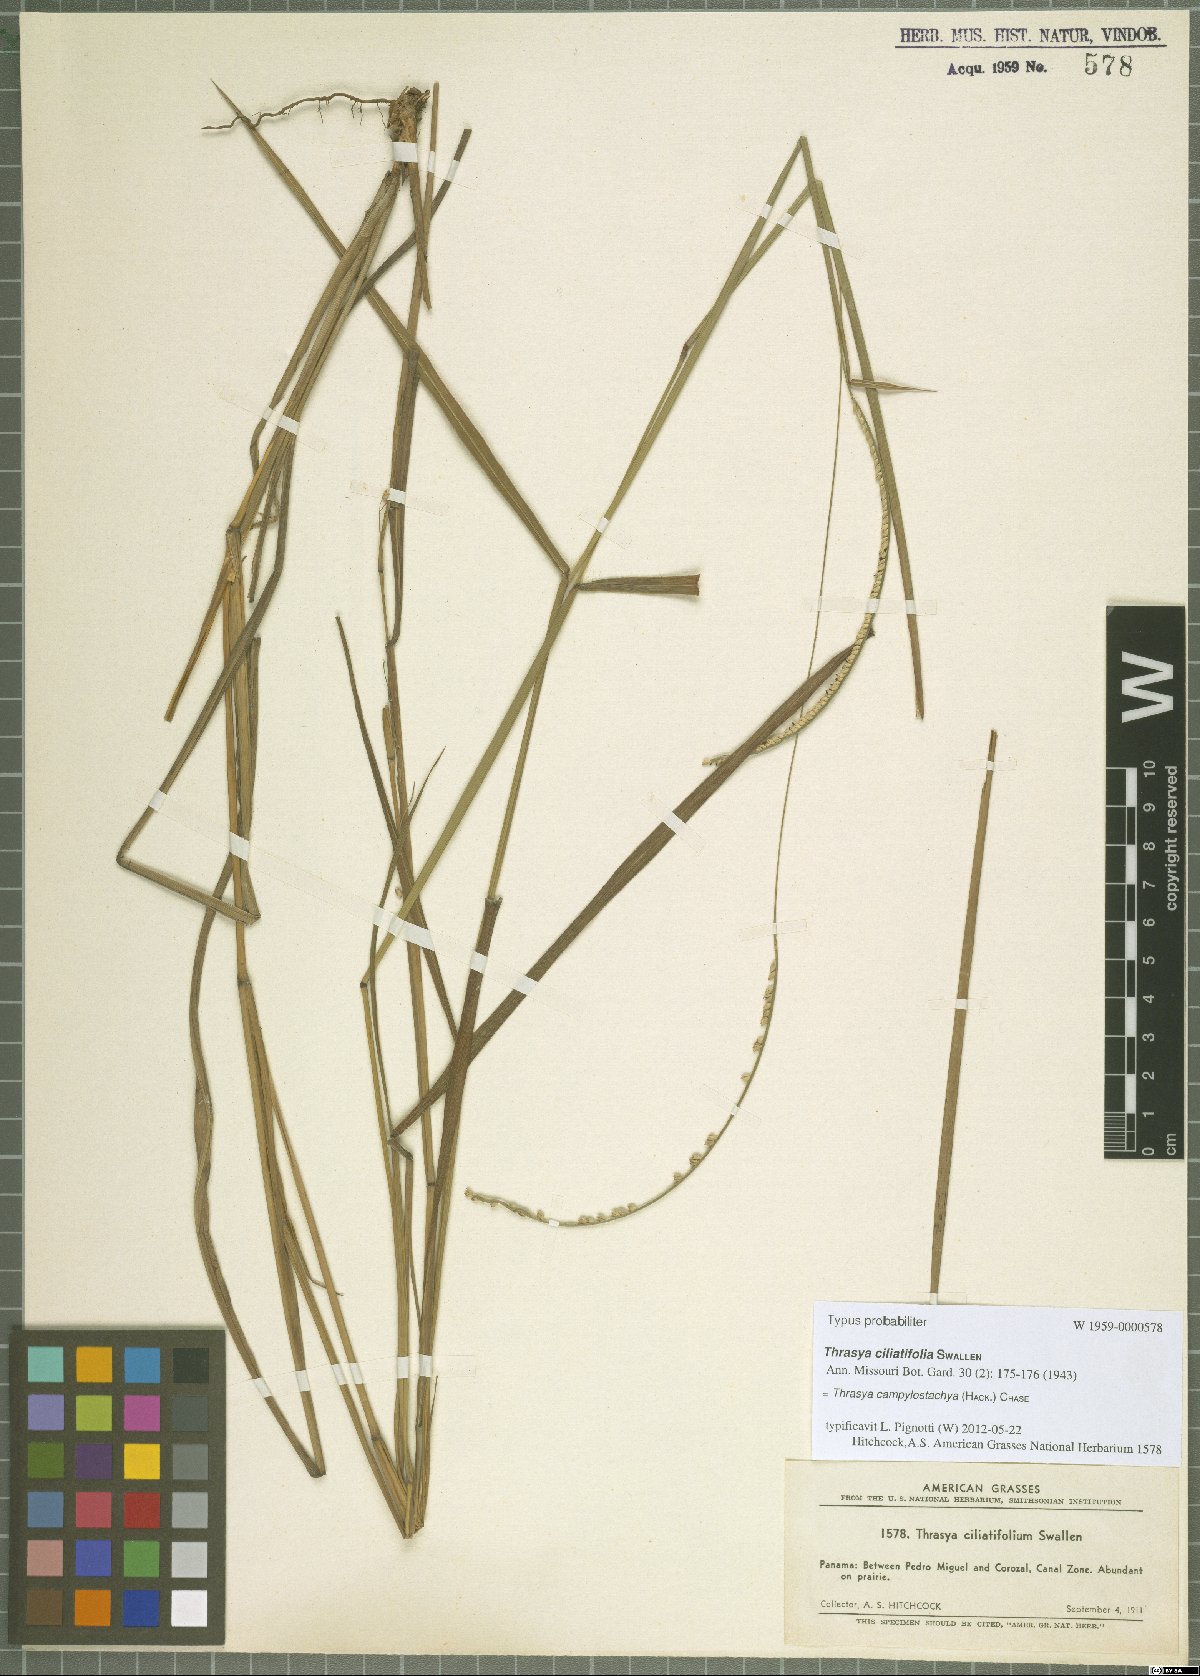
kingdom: Plantae
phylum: Tracheophyta
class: Liliopsida
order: Poales
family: Poaceae
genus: Paspalum
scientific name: Paspalum campylostachyum
